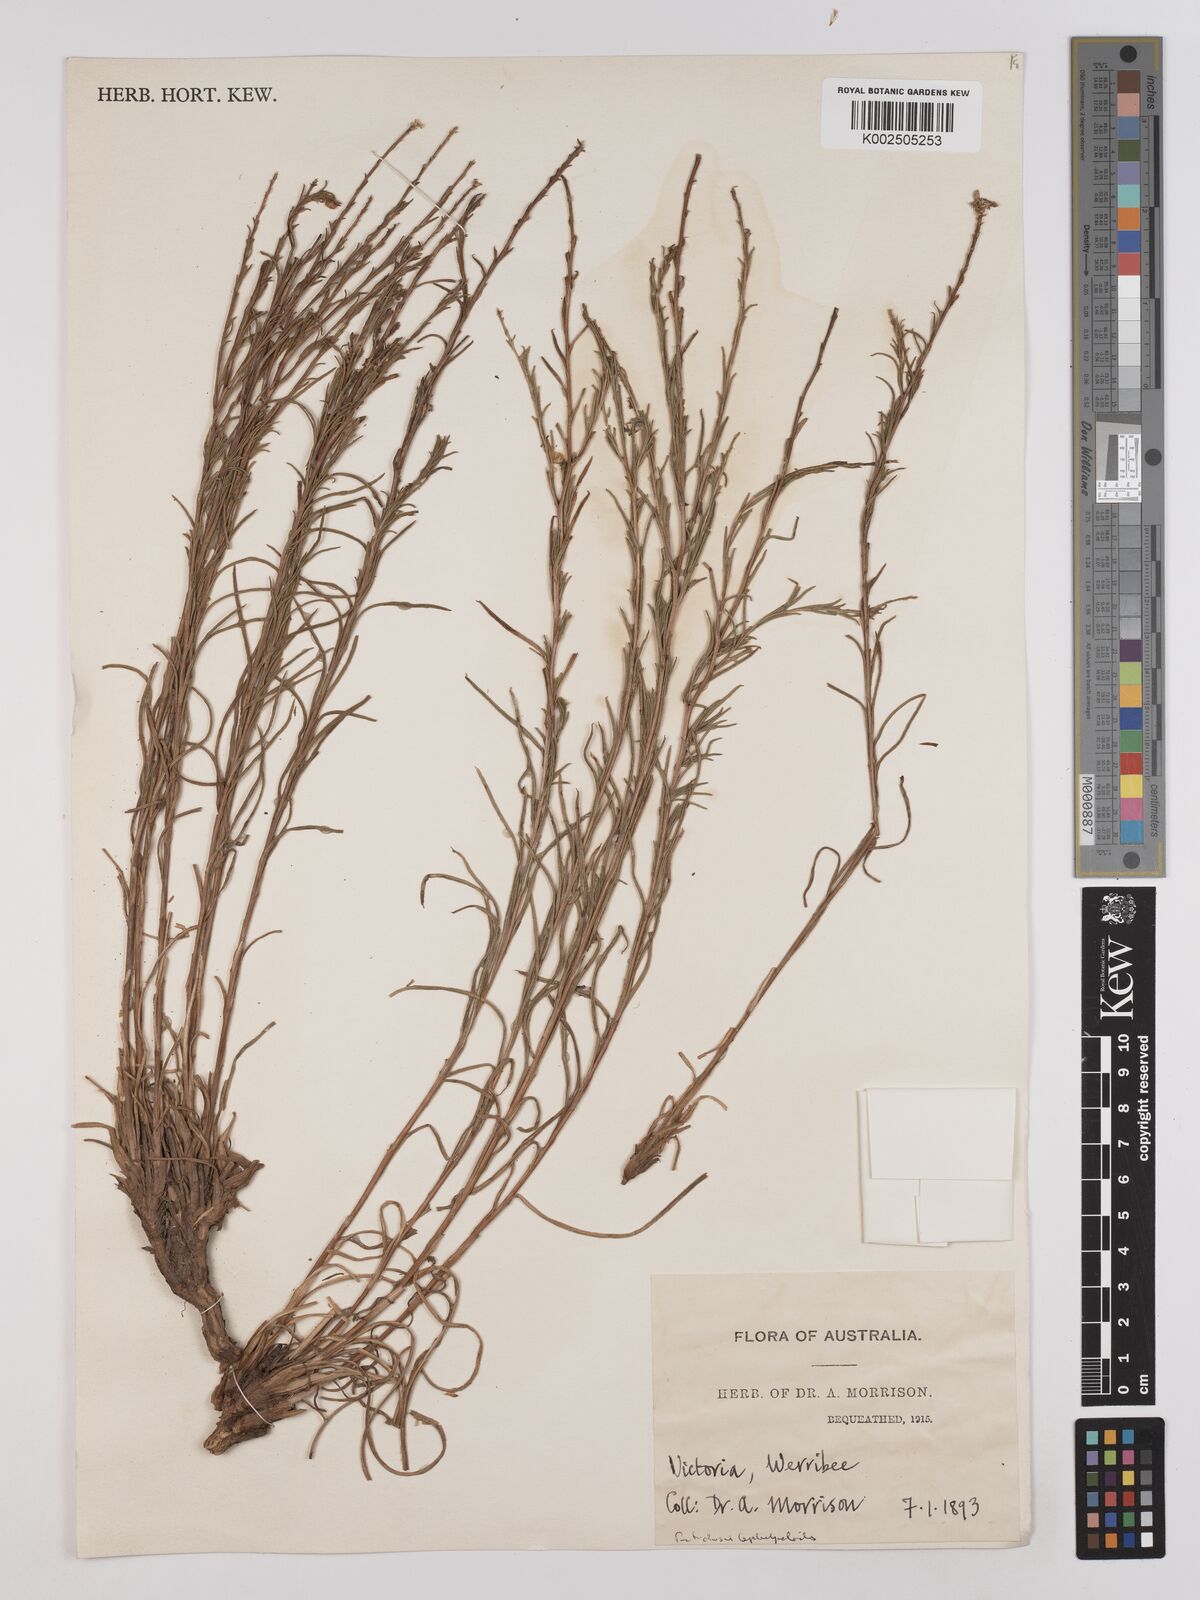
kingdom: Plantae
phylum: Tracheophyta
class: Magnoliopsida
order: Asterales
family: Asteraceae
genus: Rutidosis
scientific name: Rutidosis leptorrhynchoides
